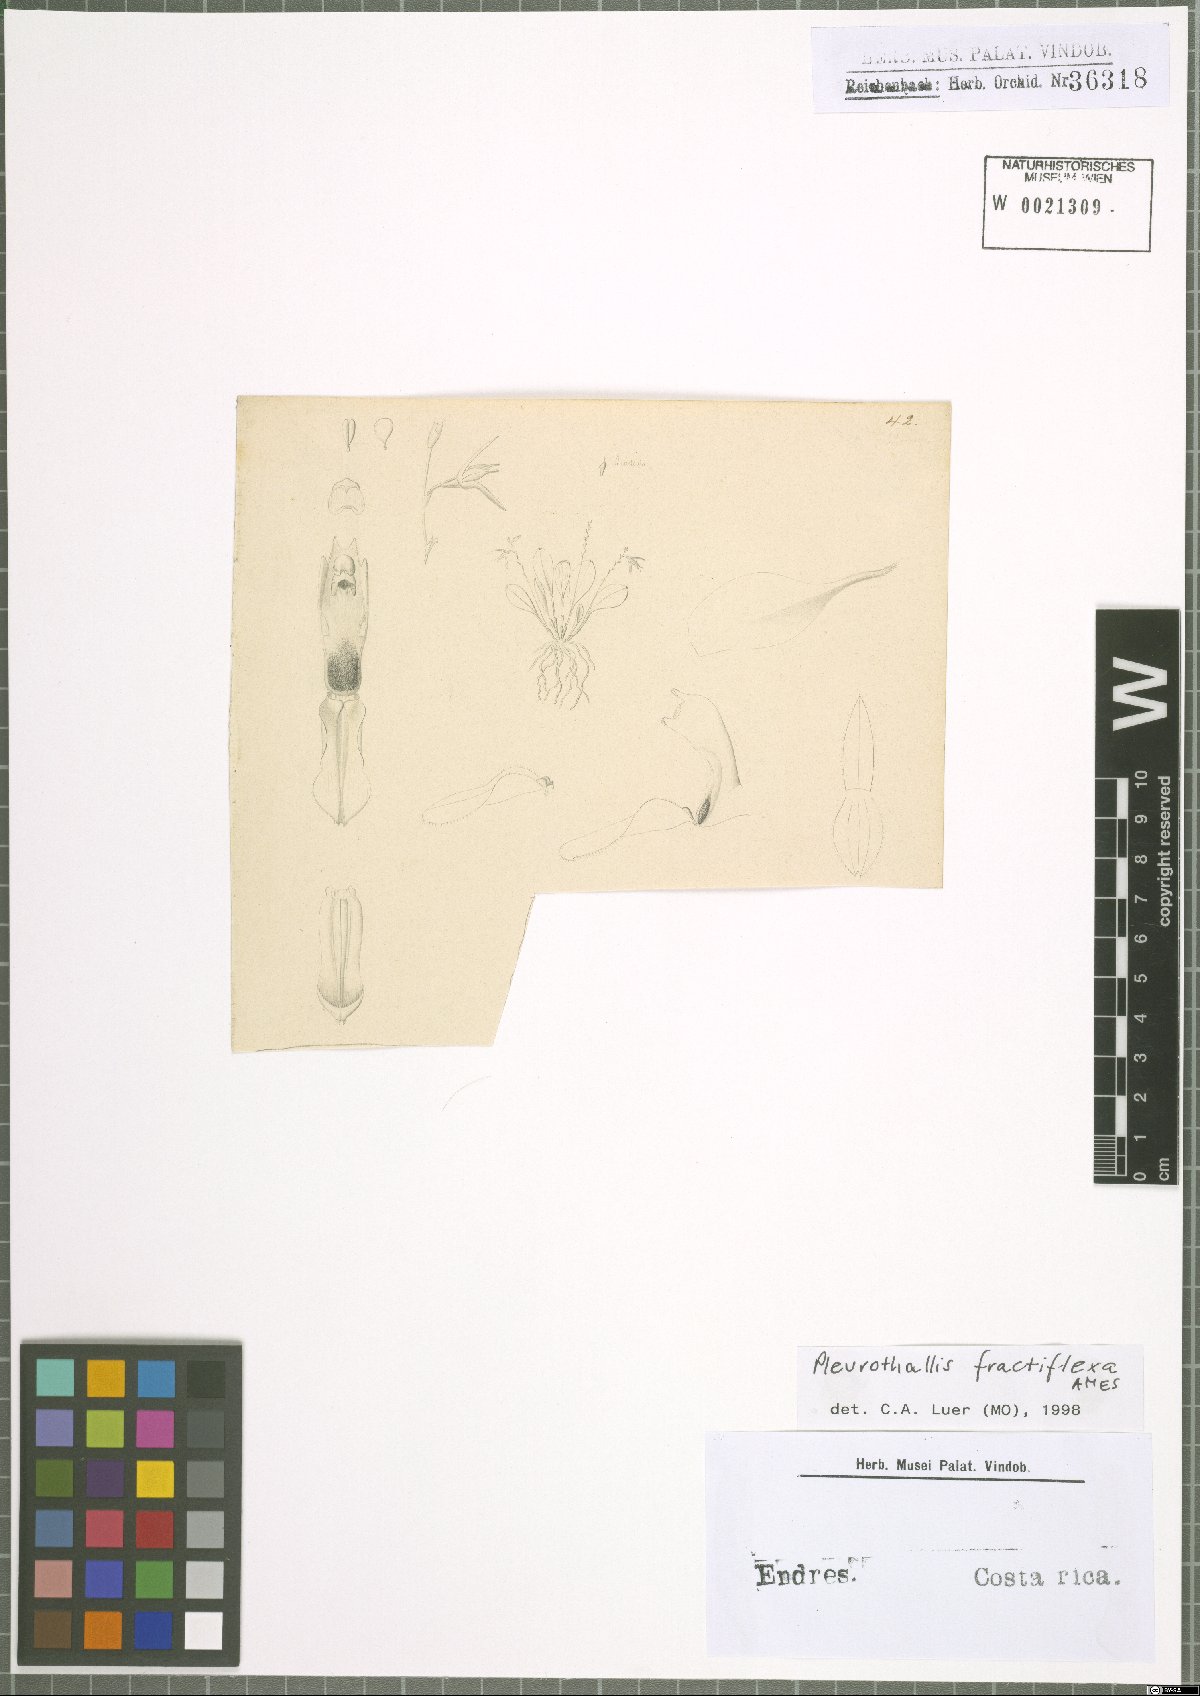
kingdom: Plantae
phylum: Tracheophyta
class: Liliopsida
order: Asparagales
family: Orchidaceae
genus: Anathallis
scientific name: Anathallis fractiflexa
